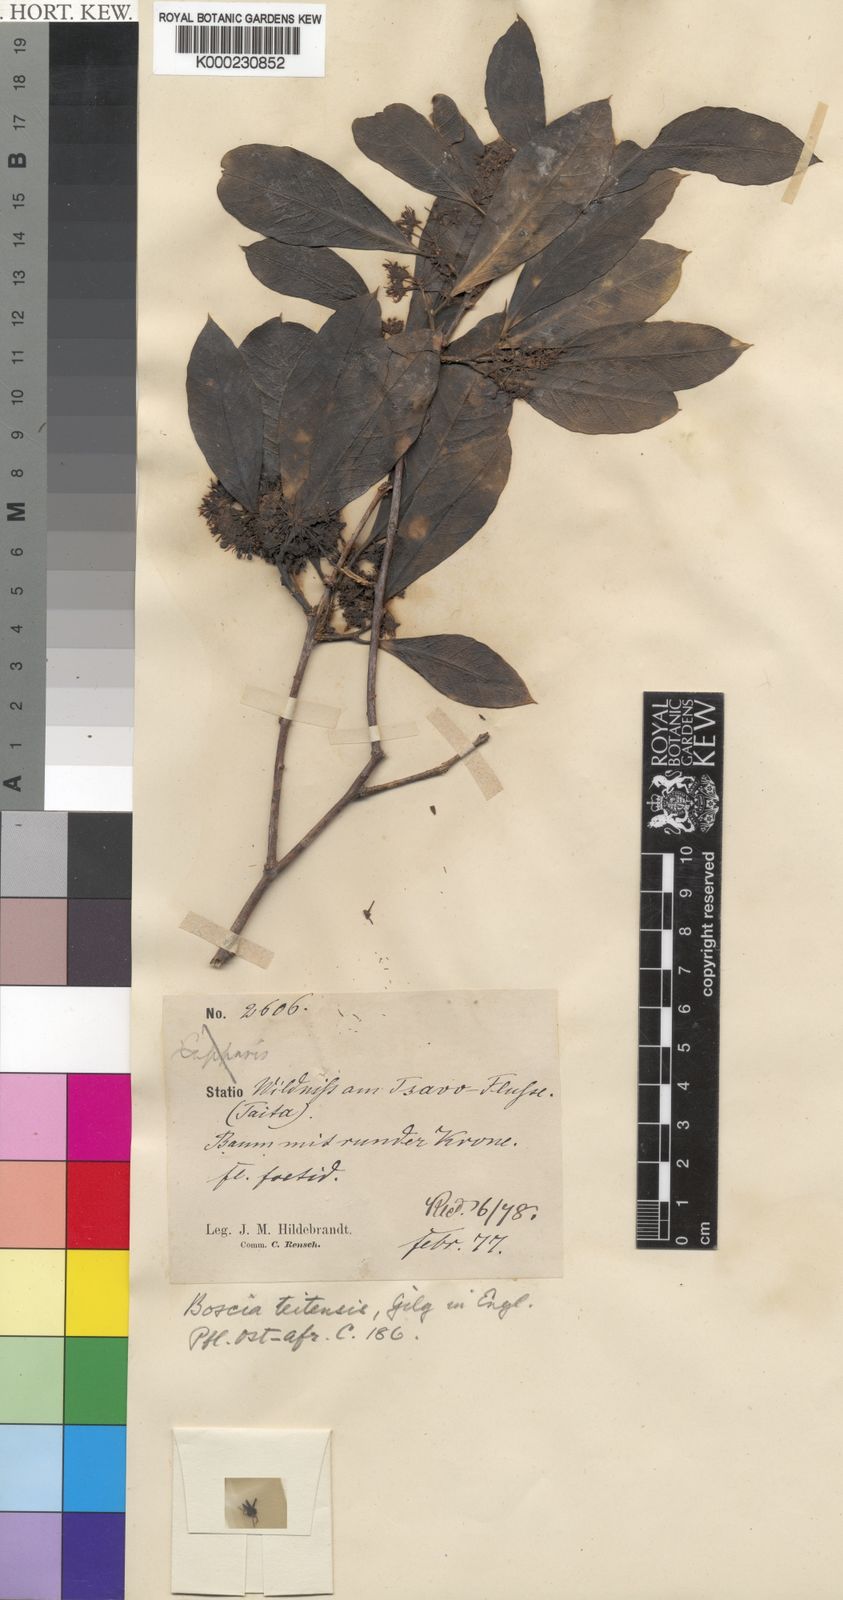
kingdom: Plantae
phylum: Tracheophyta
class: Magnoliopsida
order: Brassicales
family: Capparaceae
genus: Boscia
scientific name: Boscia coriacea
